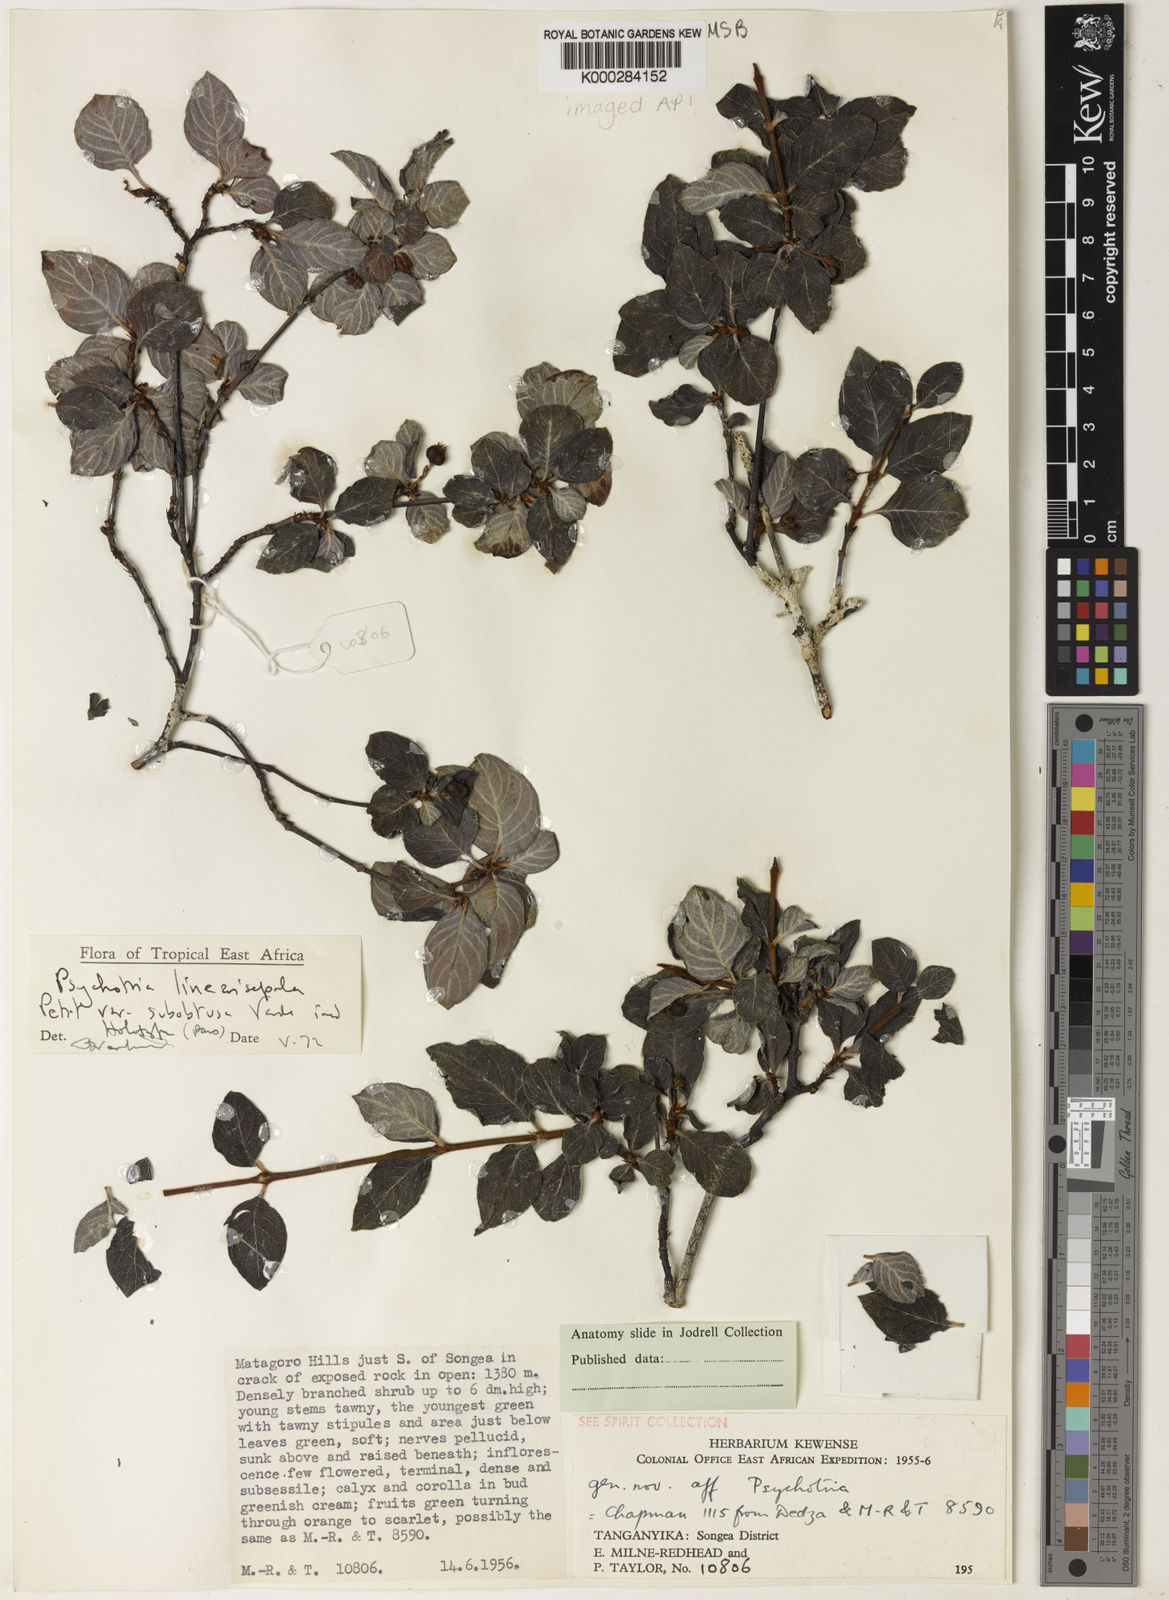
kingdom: Plantae
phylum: Tracheophyta
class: Magnoliopsida
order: Gentianales
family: Rubiaceae
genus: Psychotria
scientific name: Psychotria linearisepala
